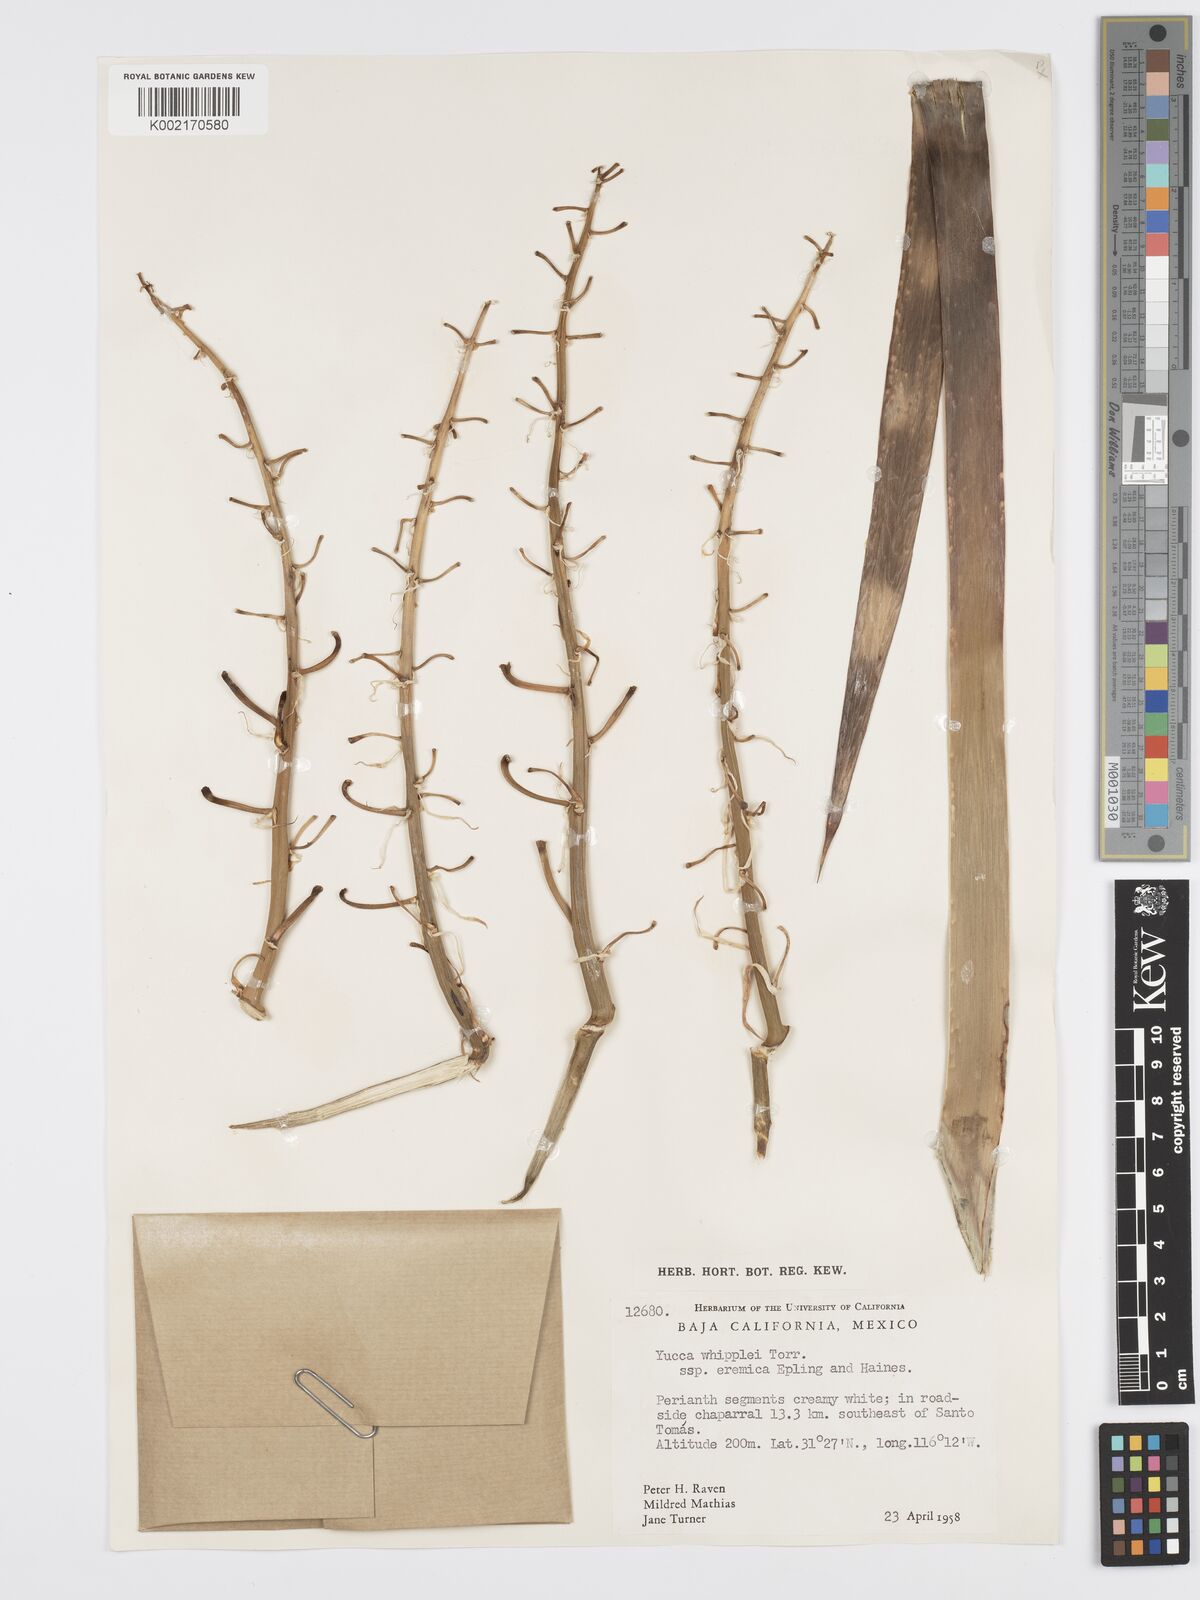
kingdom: Plantae
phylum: Tracheophyta
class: Liliopsida
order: Asparagales
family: Asparagaceae
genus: Hesperoyucca
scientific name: Hesperoyucca whipplei
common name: Our lord's-candle
